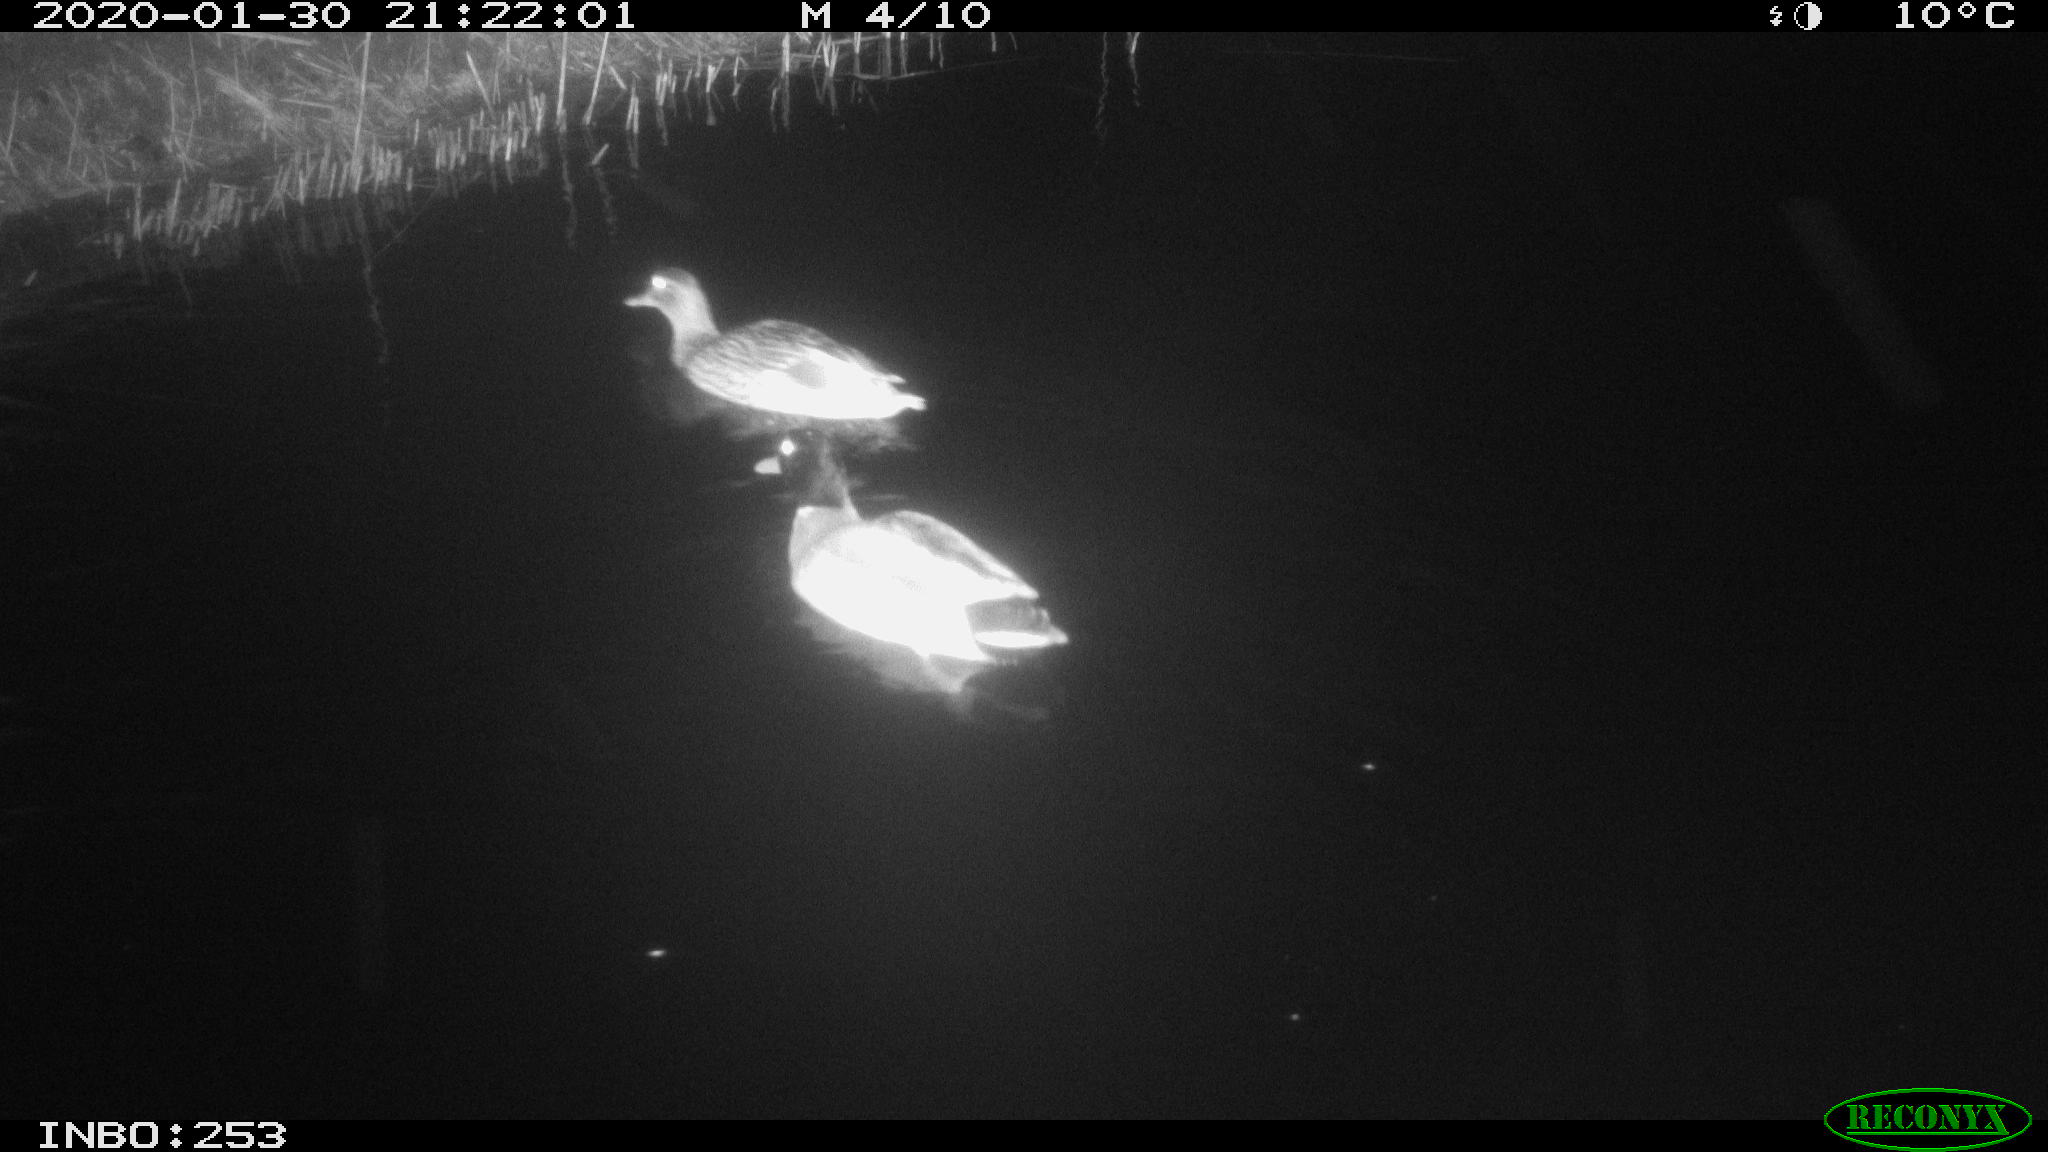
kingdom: Animalia
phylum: Chordata
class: Aves
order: Anseriformes
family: Anatidae
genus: Anas
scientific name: Anas platyrhynchos
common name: Mallard
